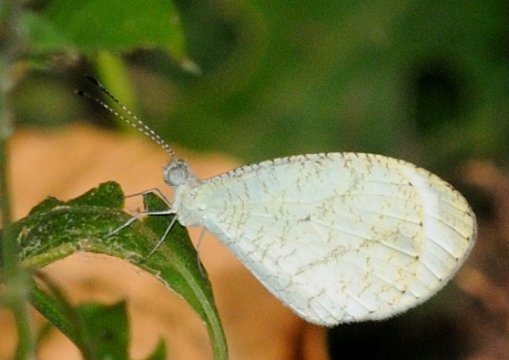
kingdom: Animalia
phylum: Arthropoda
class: Insecta
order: Lepidoptera
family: Pieridae
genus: Leptosia
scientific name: Leptosia alcesta
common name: African Wood White
